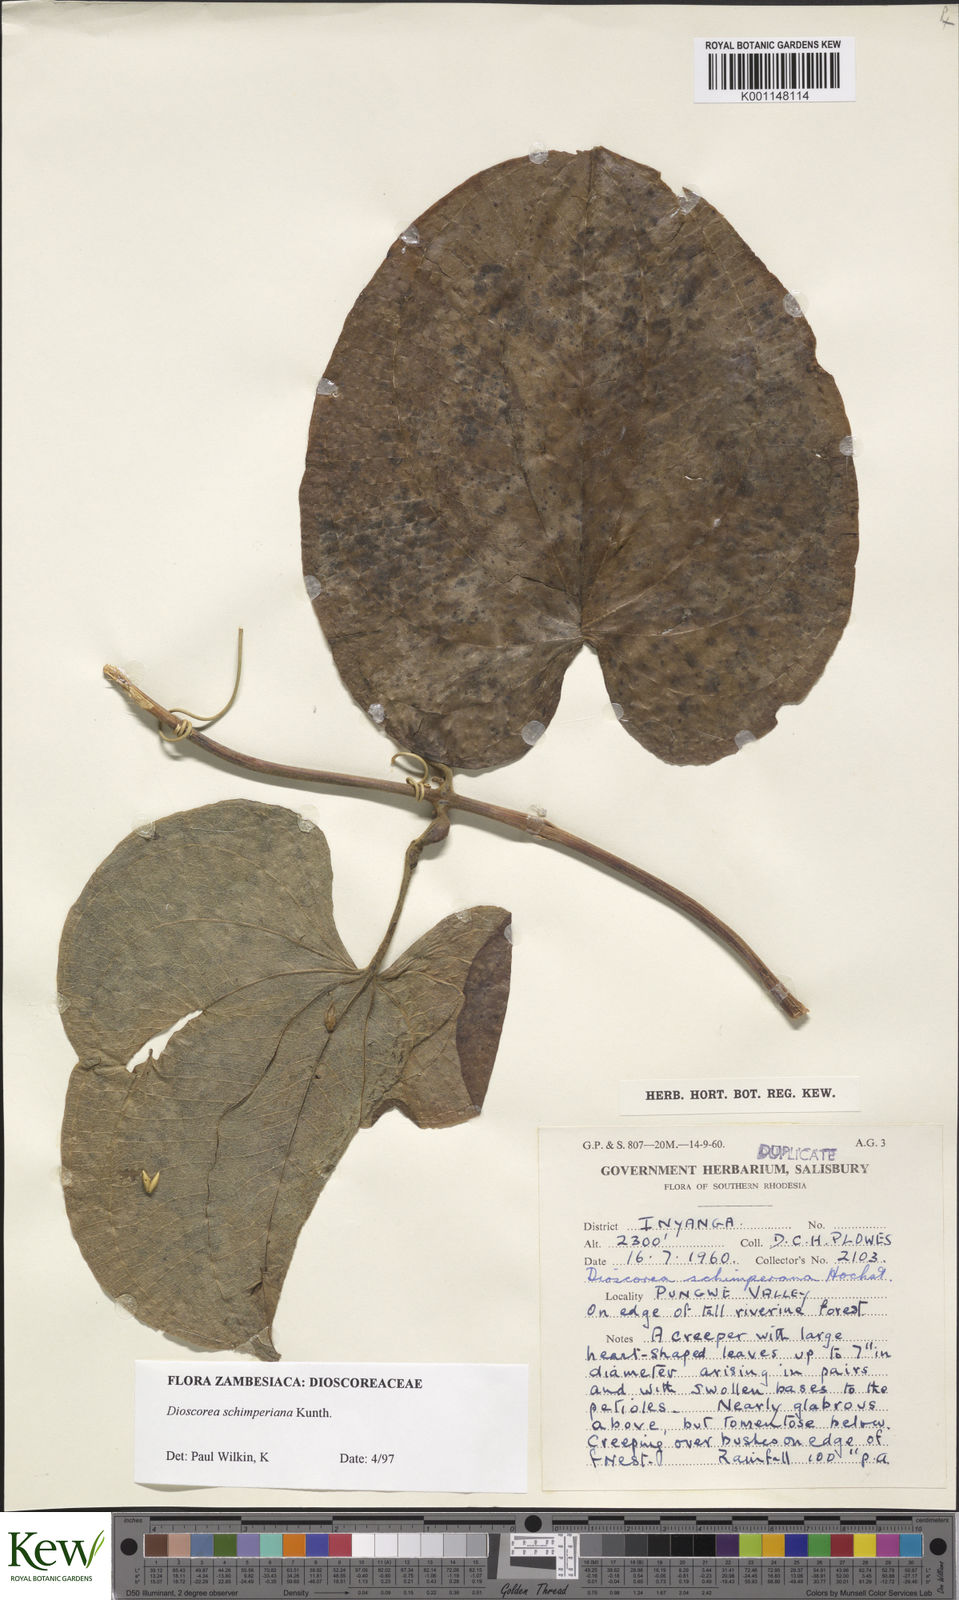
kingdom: Plantae
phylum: Tracheophyta
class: Liliopsida
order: Dioscoreales
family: Dioscoreaceae
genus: Dioscorea
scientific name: Dioscorea schimperiana
